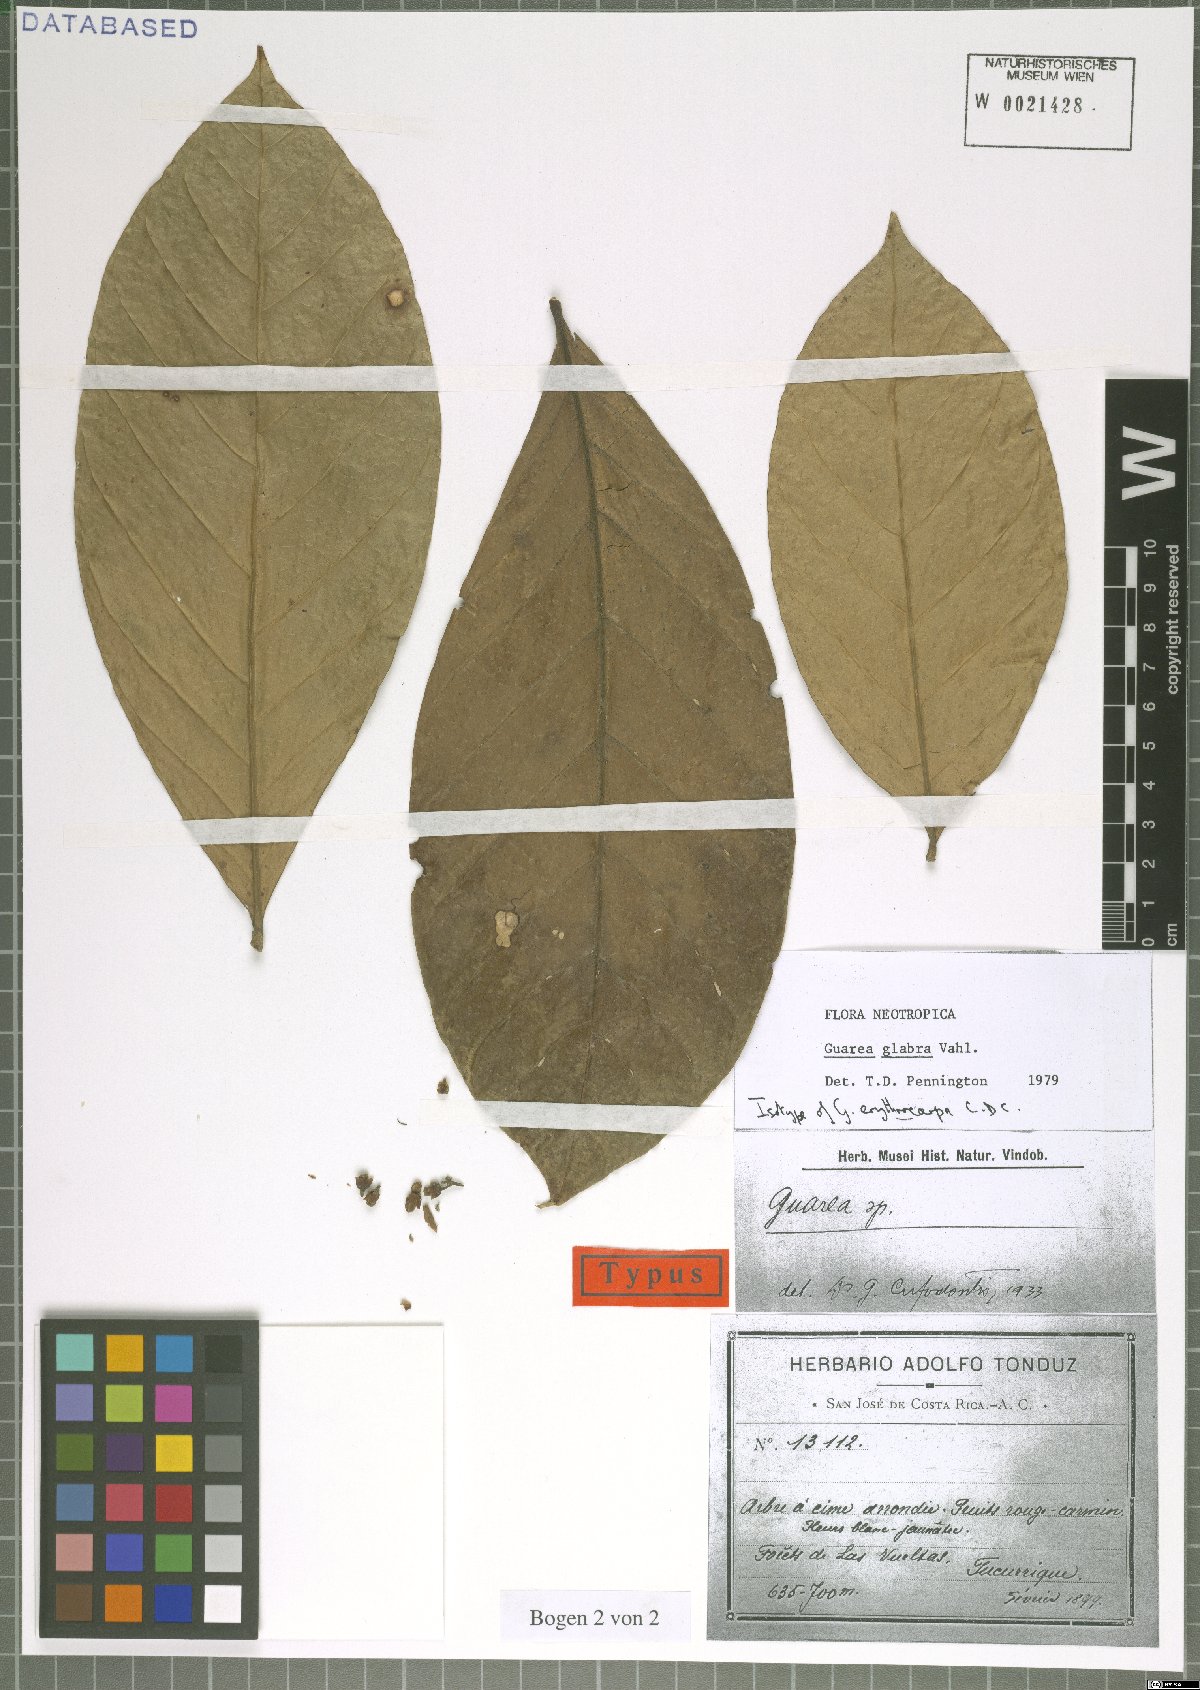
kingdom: Plantae
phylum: Tracheophyta
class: Magnoliopsida
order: Sapindales
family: Meliaceae
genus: Guarea
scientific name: Guarea glabra
